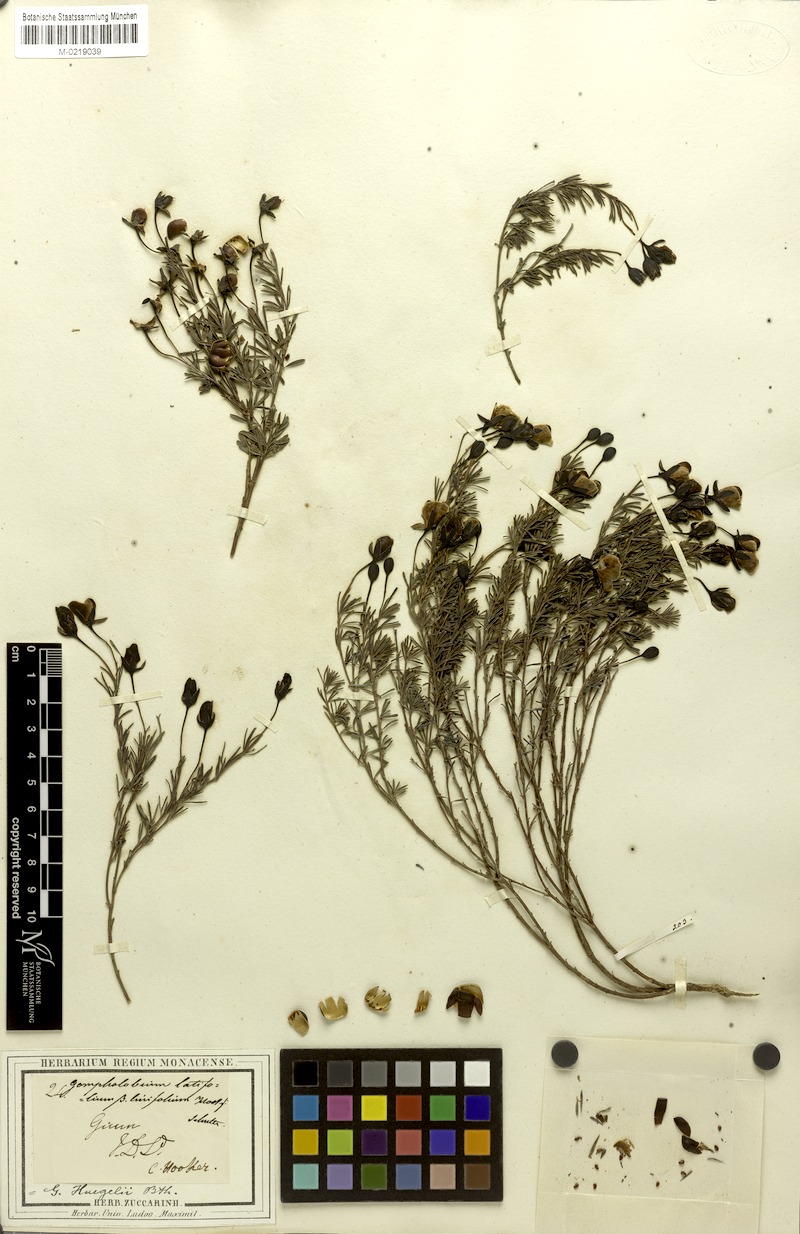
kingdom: Plantae
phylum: Tracheophyta
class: Magnoliopsida
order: Fabales
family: Fabaceae
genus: Gompholobium
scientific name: Gompholobium huegelii
